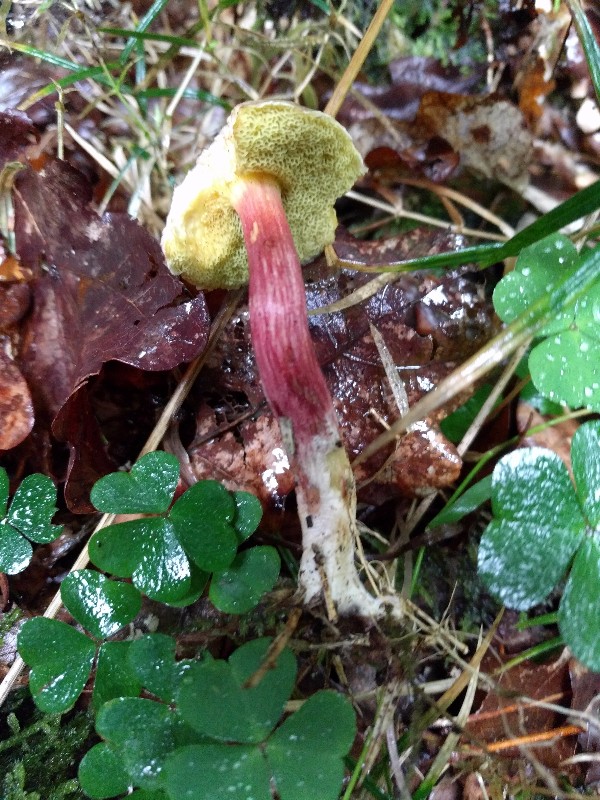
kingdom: Fungi
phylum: Basidiomycota
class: Agaricomycetes
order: Boletales
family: Boletaceae
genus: Xerocomellus
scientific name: Xerocomellus chrysenteron
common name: rødsprukken rørhat
